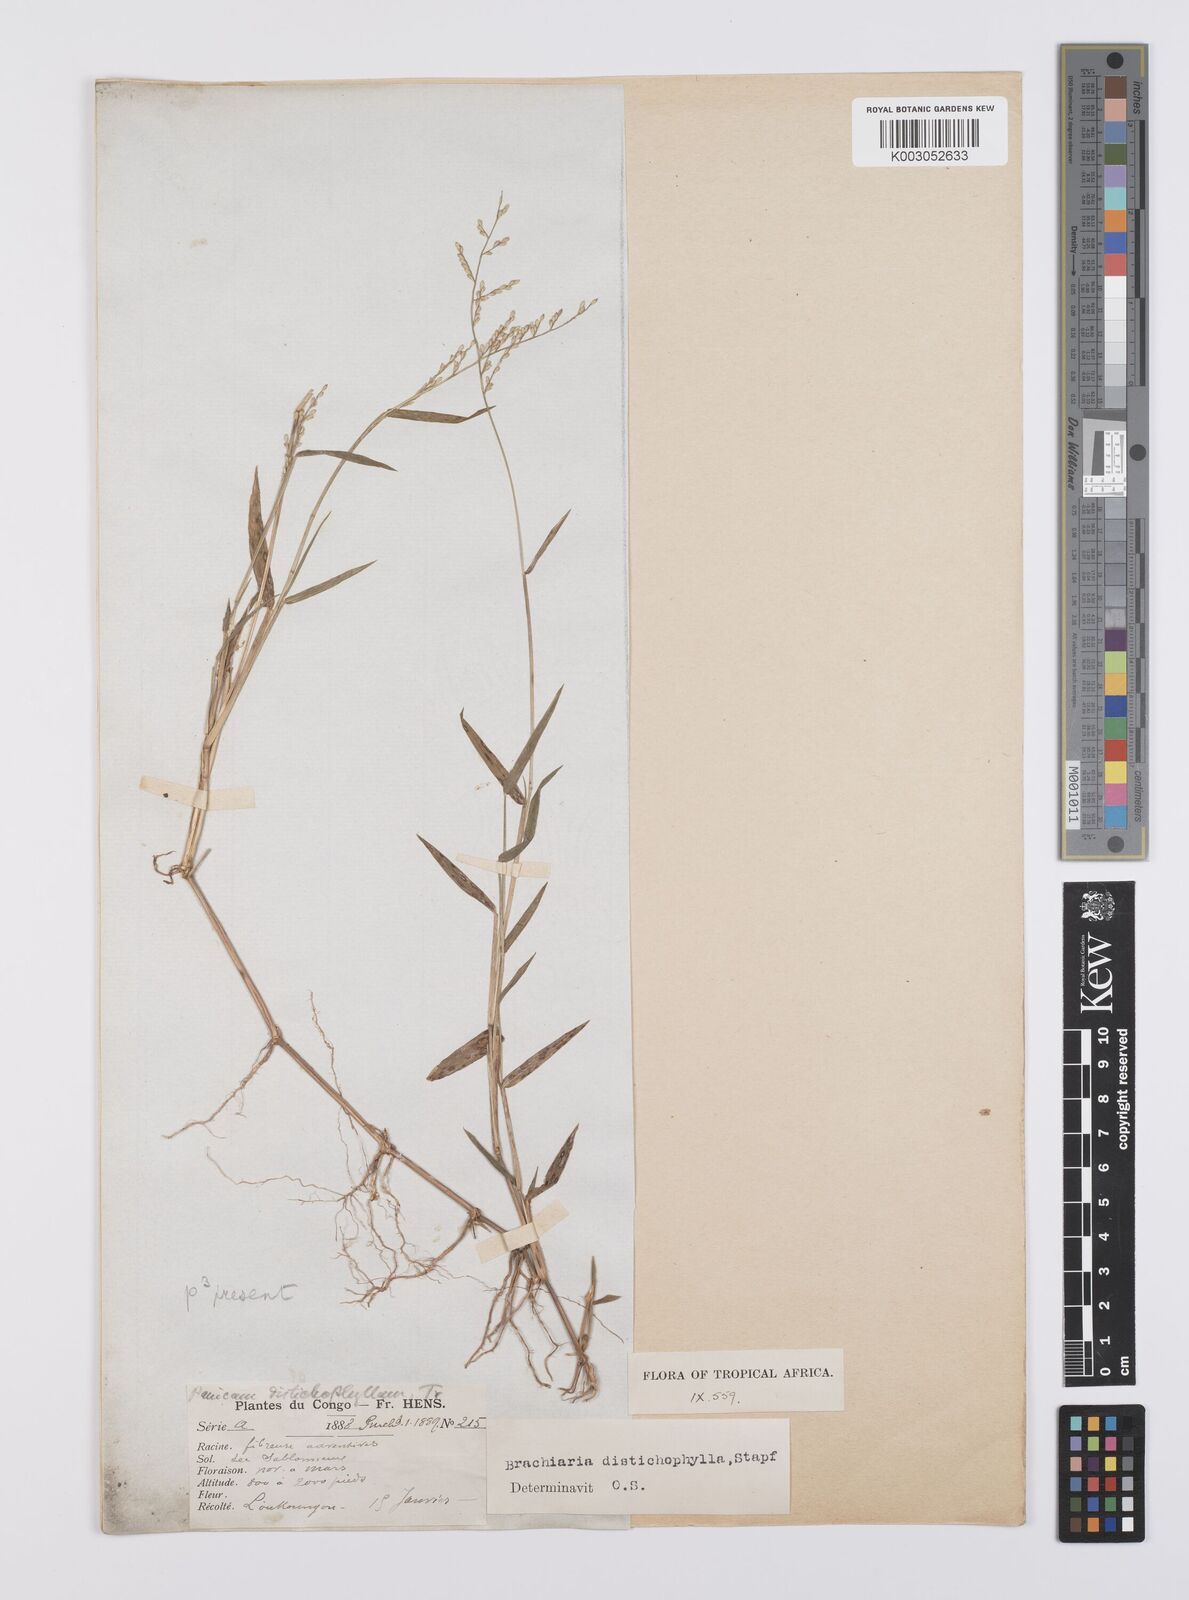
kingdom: Plantae
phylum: Tracheophyta
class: Liliopsida
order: Poales
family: Poaceae
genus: Urochloa
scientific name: Urochloa villosa
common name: Hairy signalgrass
